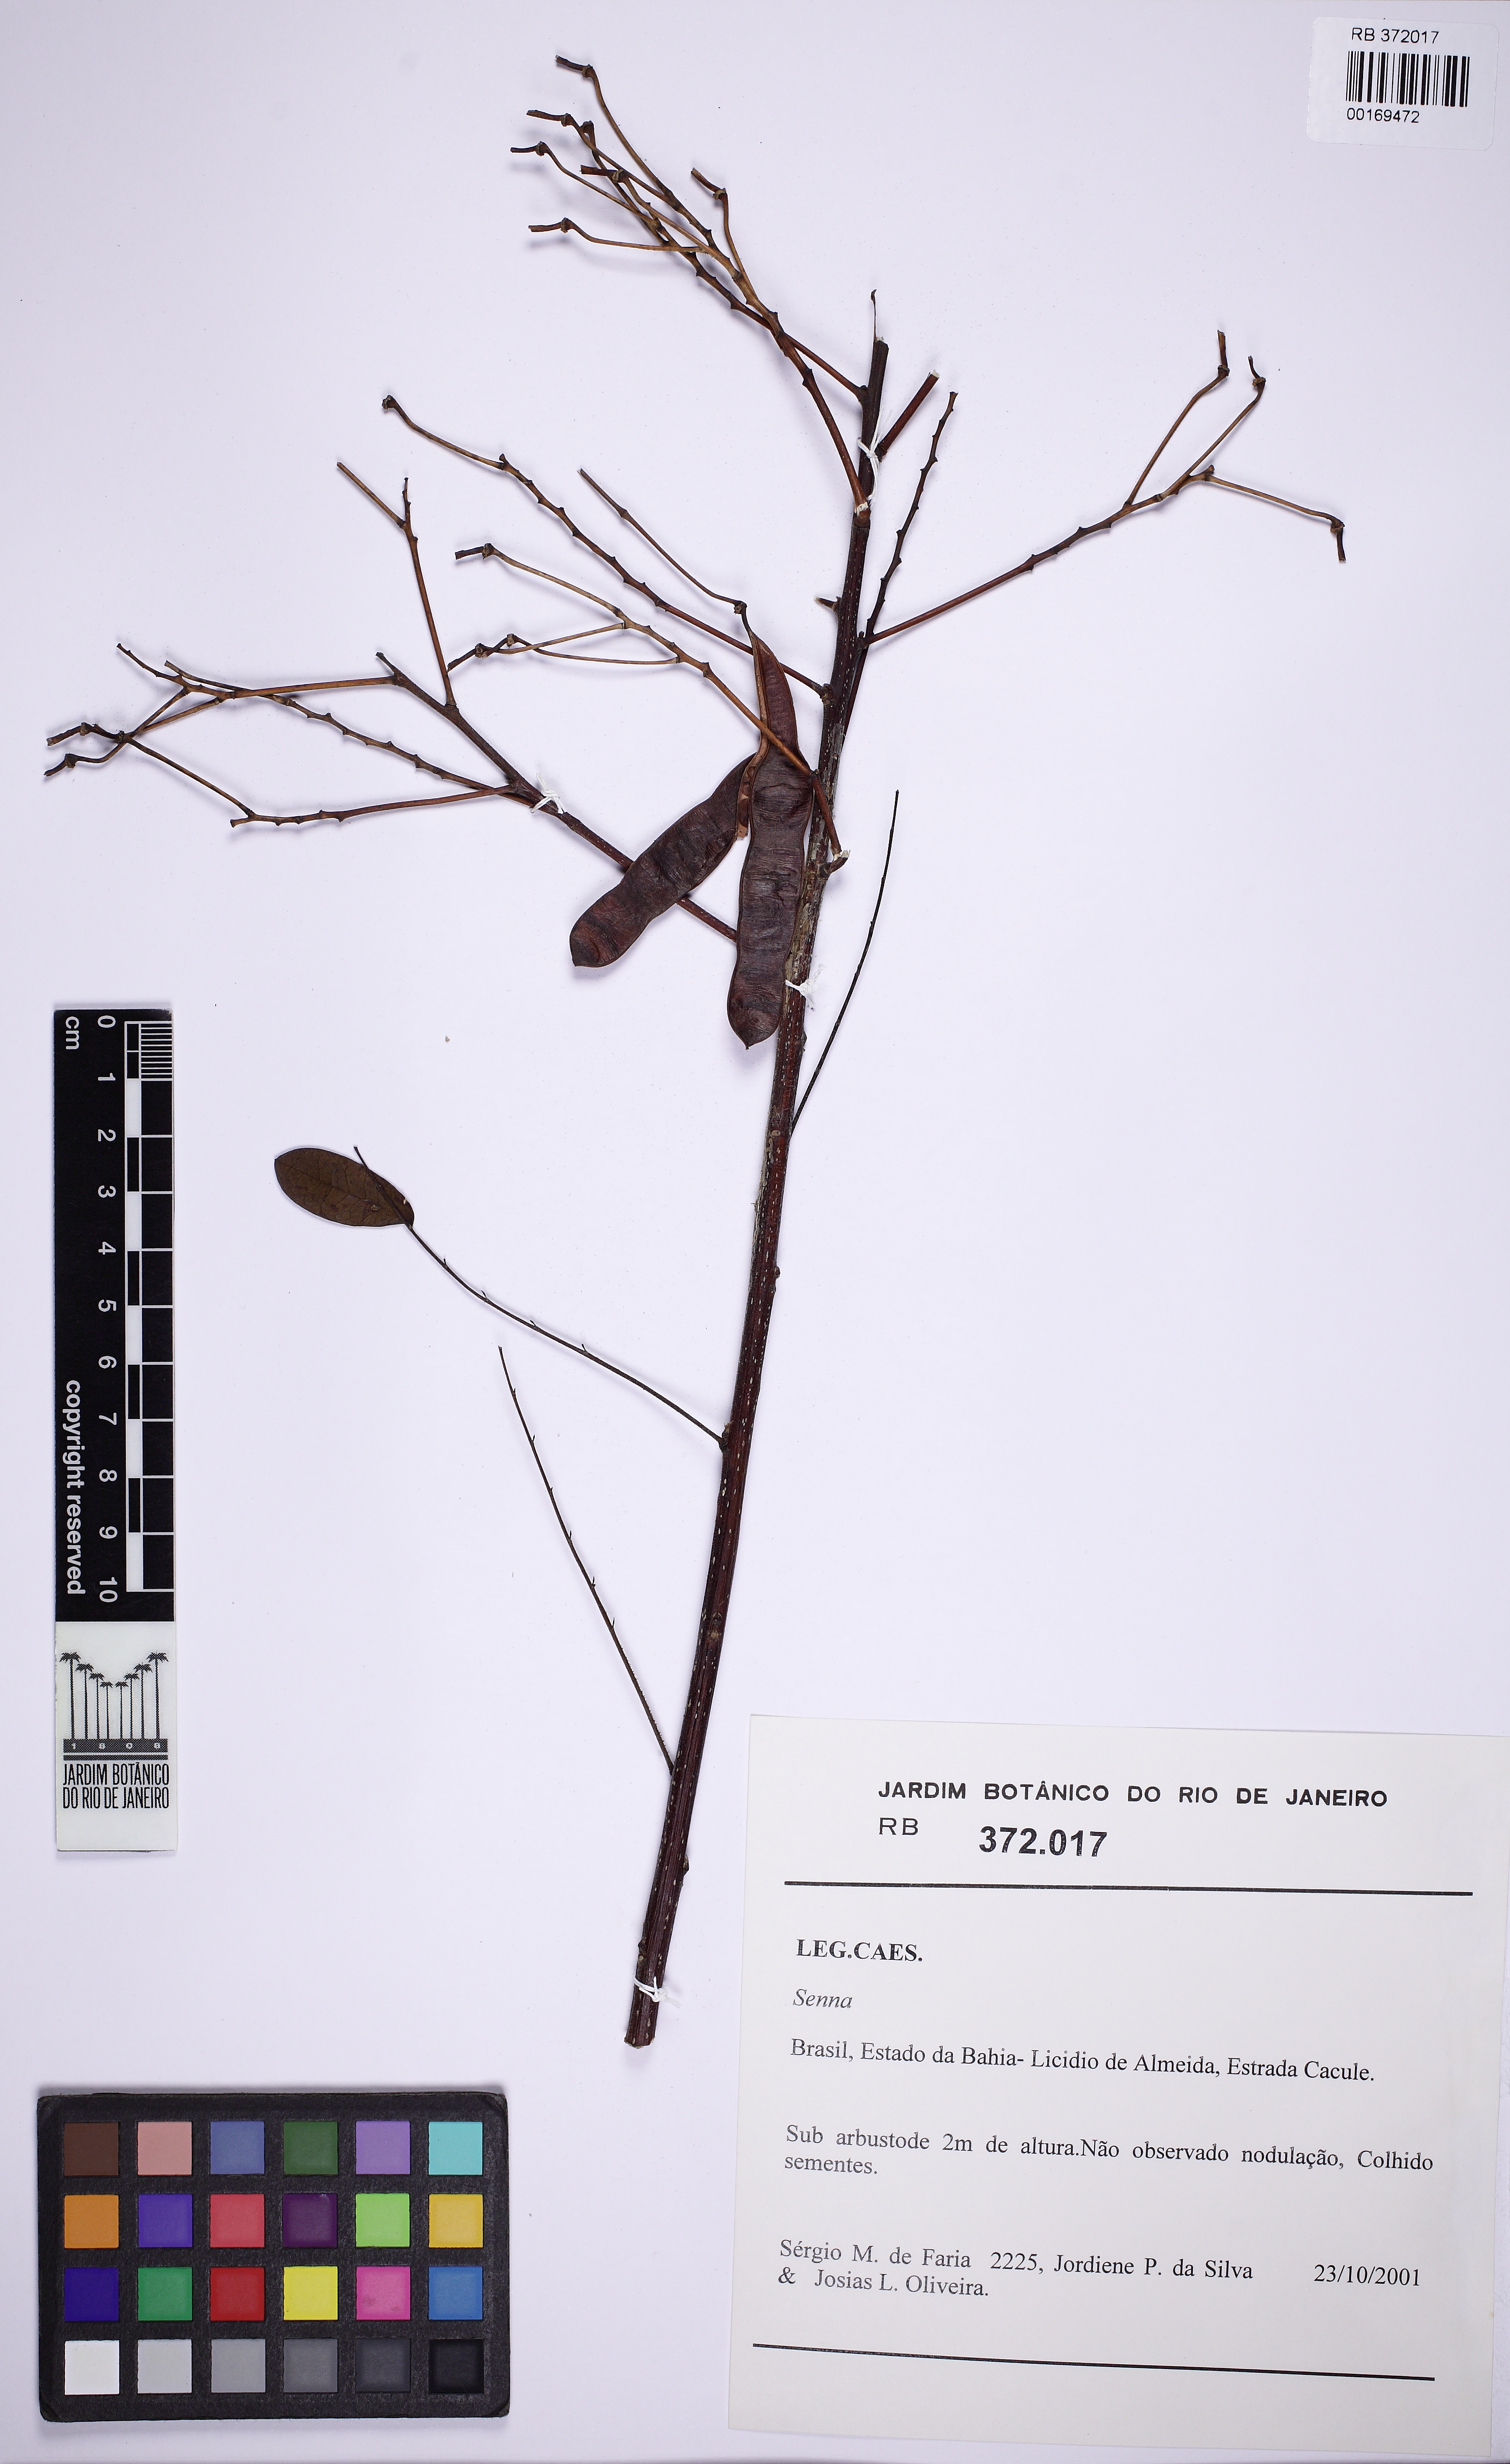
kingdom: Plantae
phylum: Tracheophyta
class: Magnoliopsida
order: Fabales
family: Fabaceae
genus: Senna
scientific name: Senna
